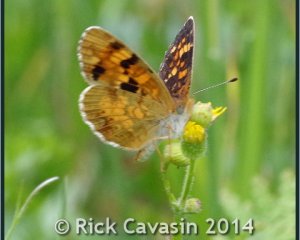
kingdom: Animalia
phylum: Arthropoda
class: Insecta
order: Lepidoptera
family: Nymphalidae
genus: Phyciodes
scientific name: Phyciodes batesii
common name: Tawny Crescent
